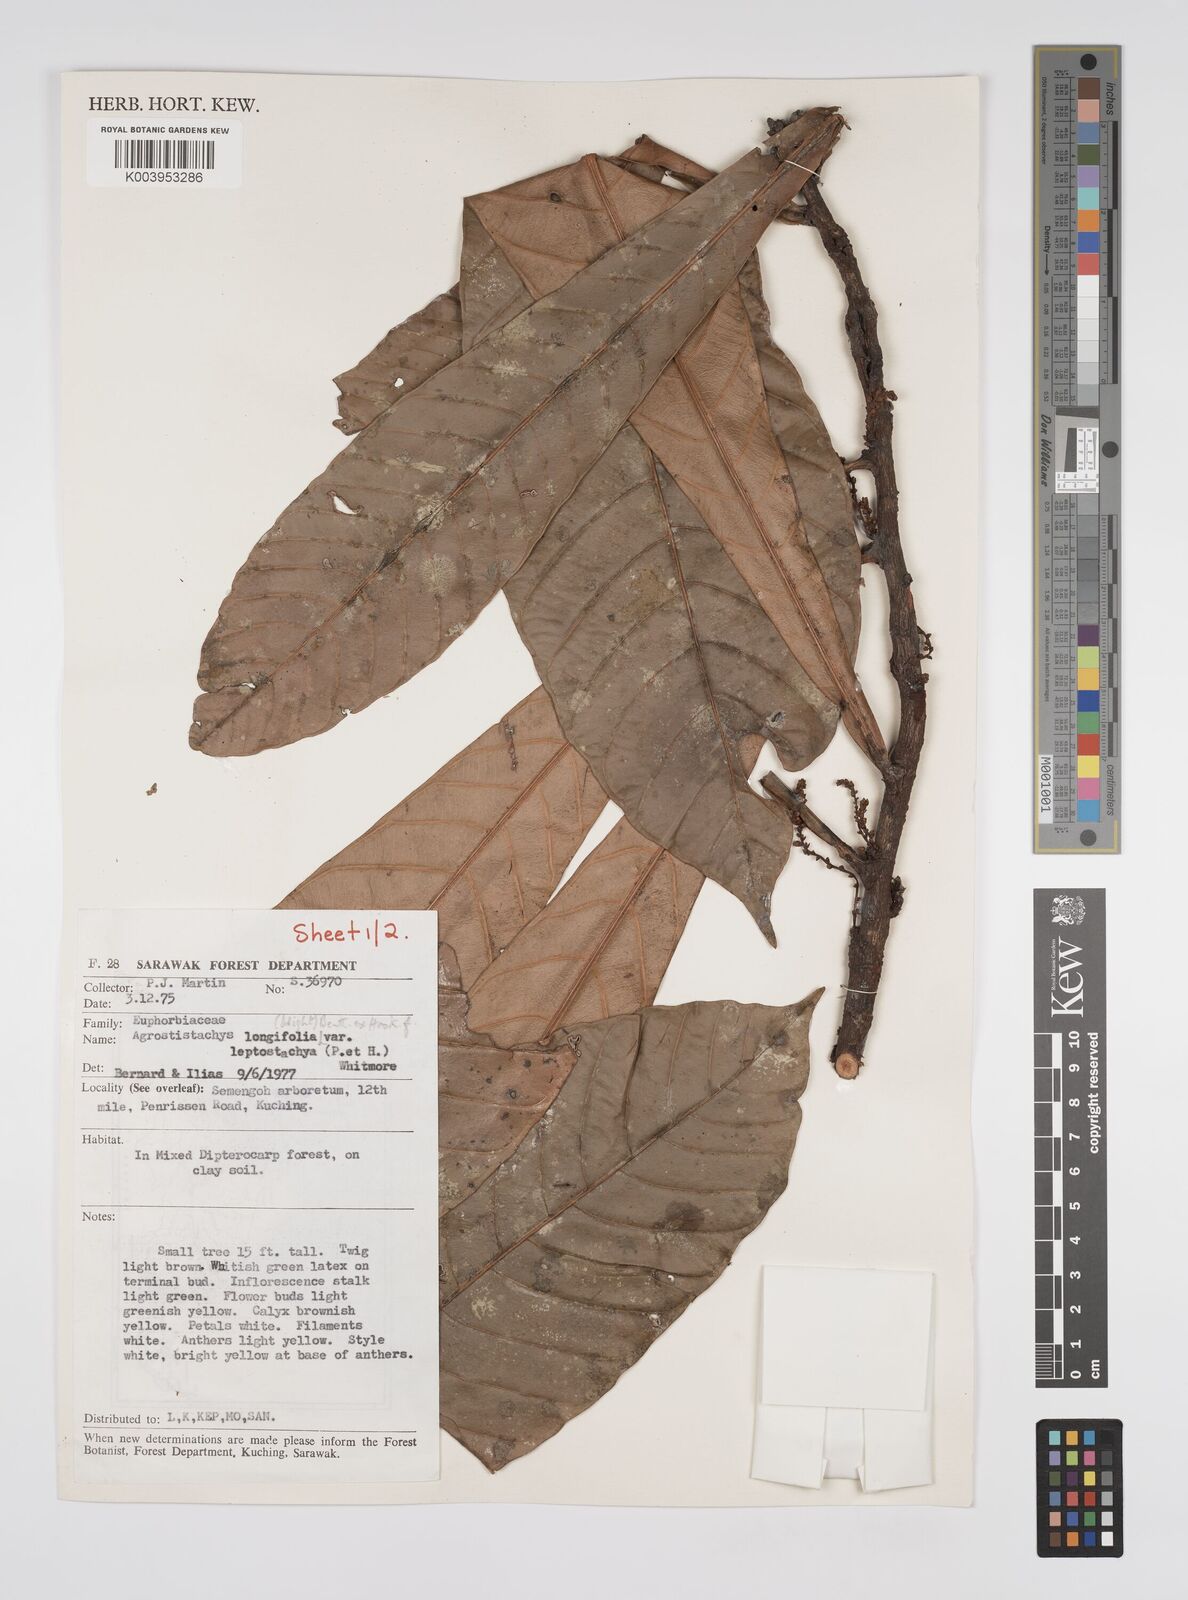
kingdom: Plantae
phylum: Tracheophyta
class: Magnoliopsida
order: Malpighiales
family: Euphorbiaceae
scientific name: Euphorbiaceae
